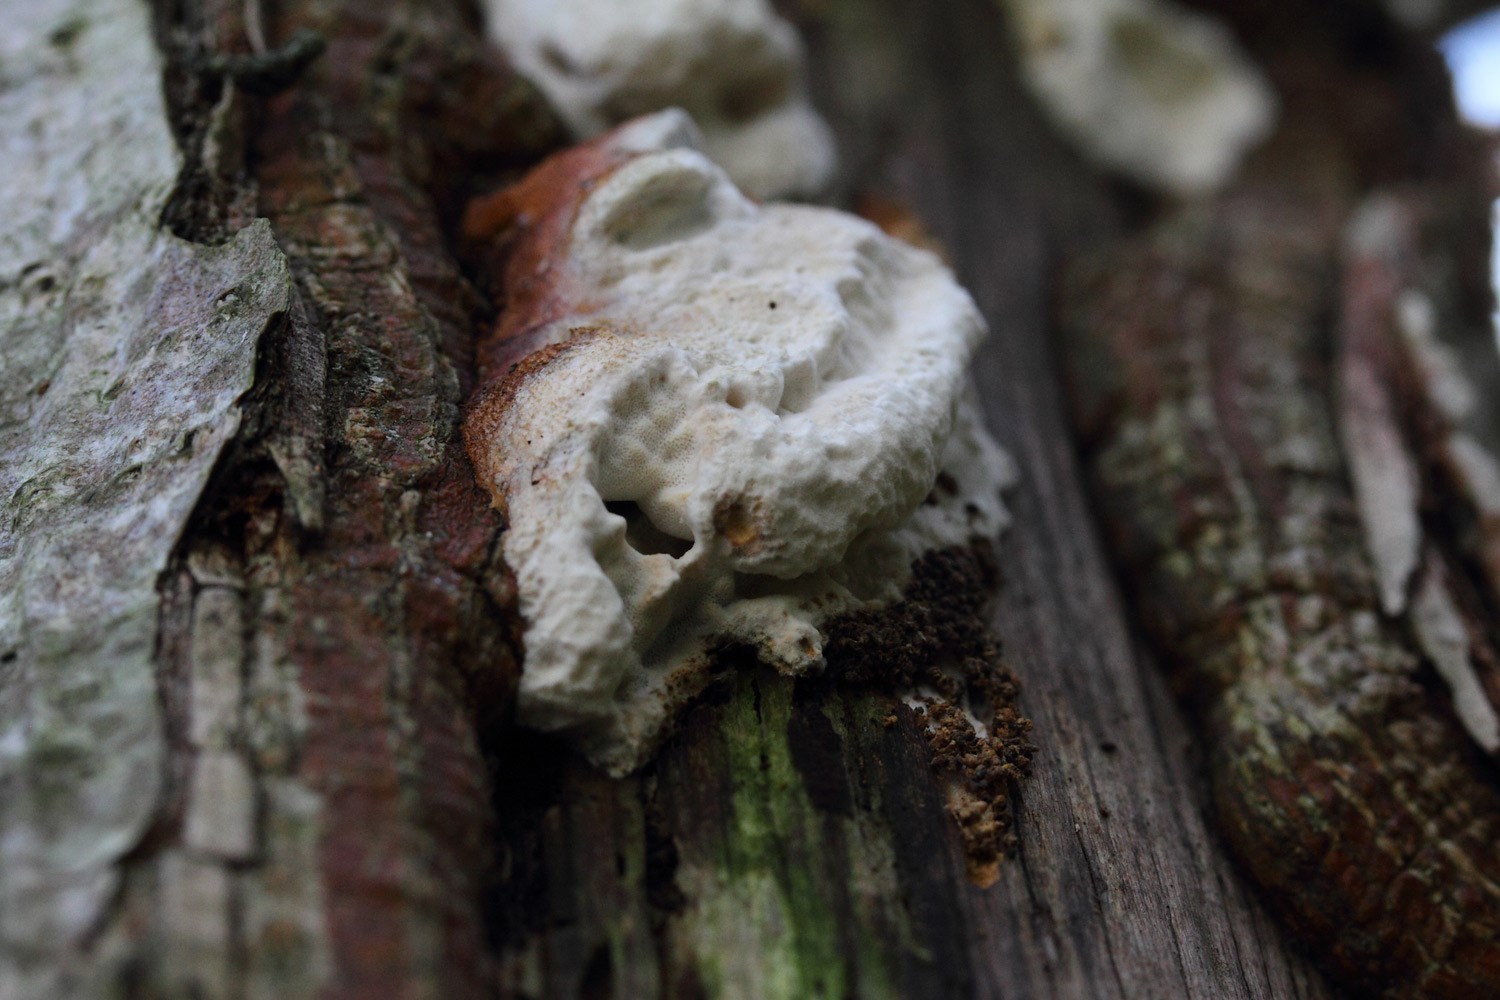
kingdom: Fungi
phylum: Basidiomycota
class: Agaricomycetes
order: Polyporales
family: Polyporaceae
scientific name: Polyporaceae
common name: poresvampfamilien
